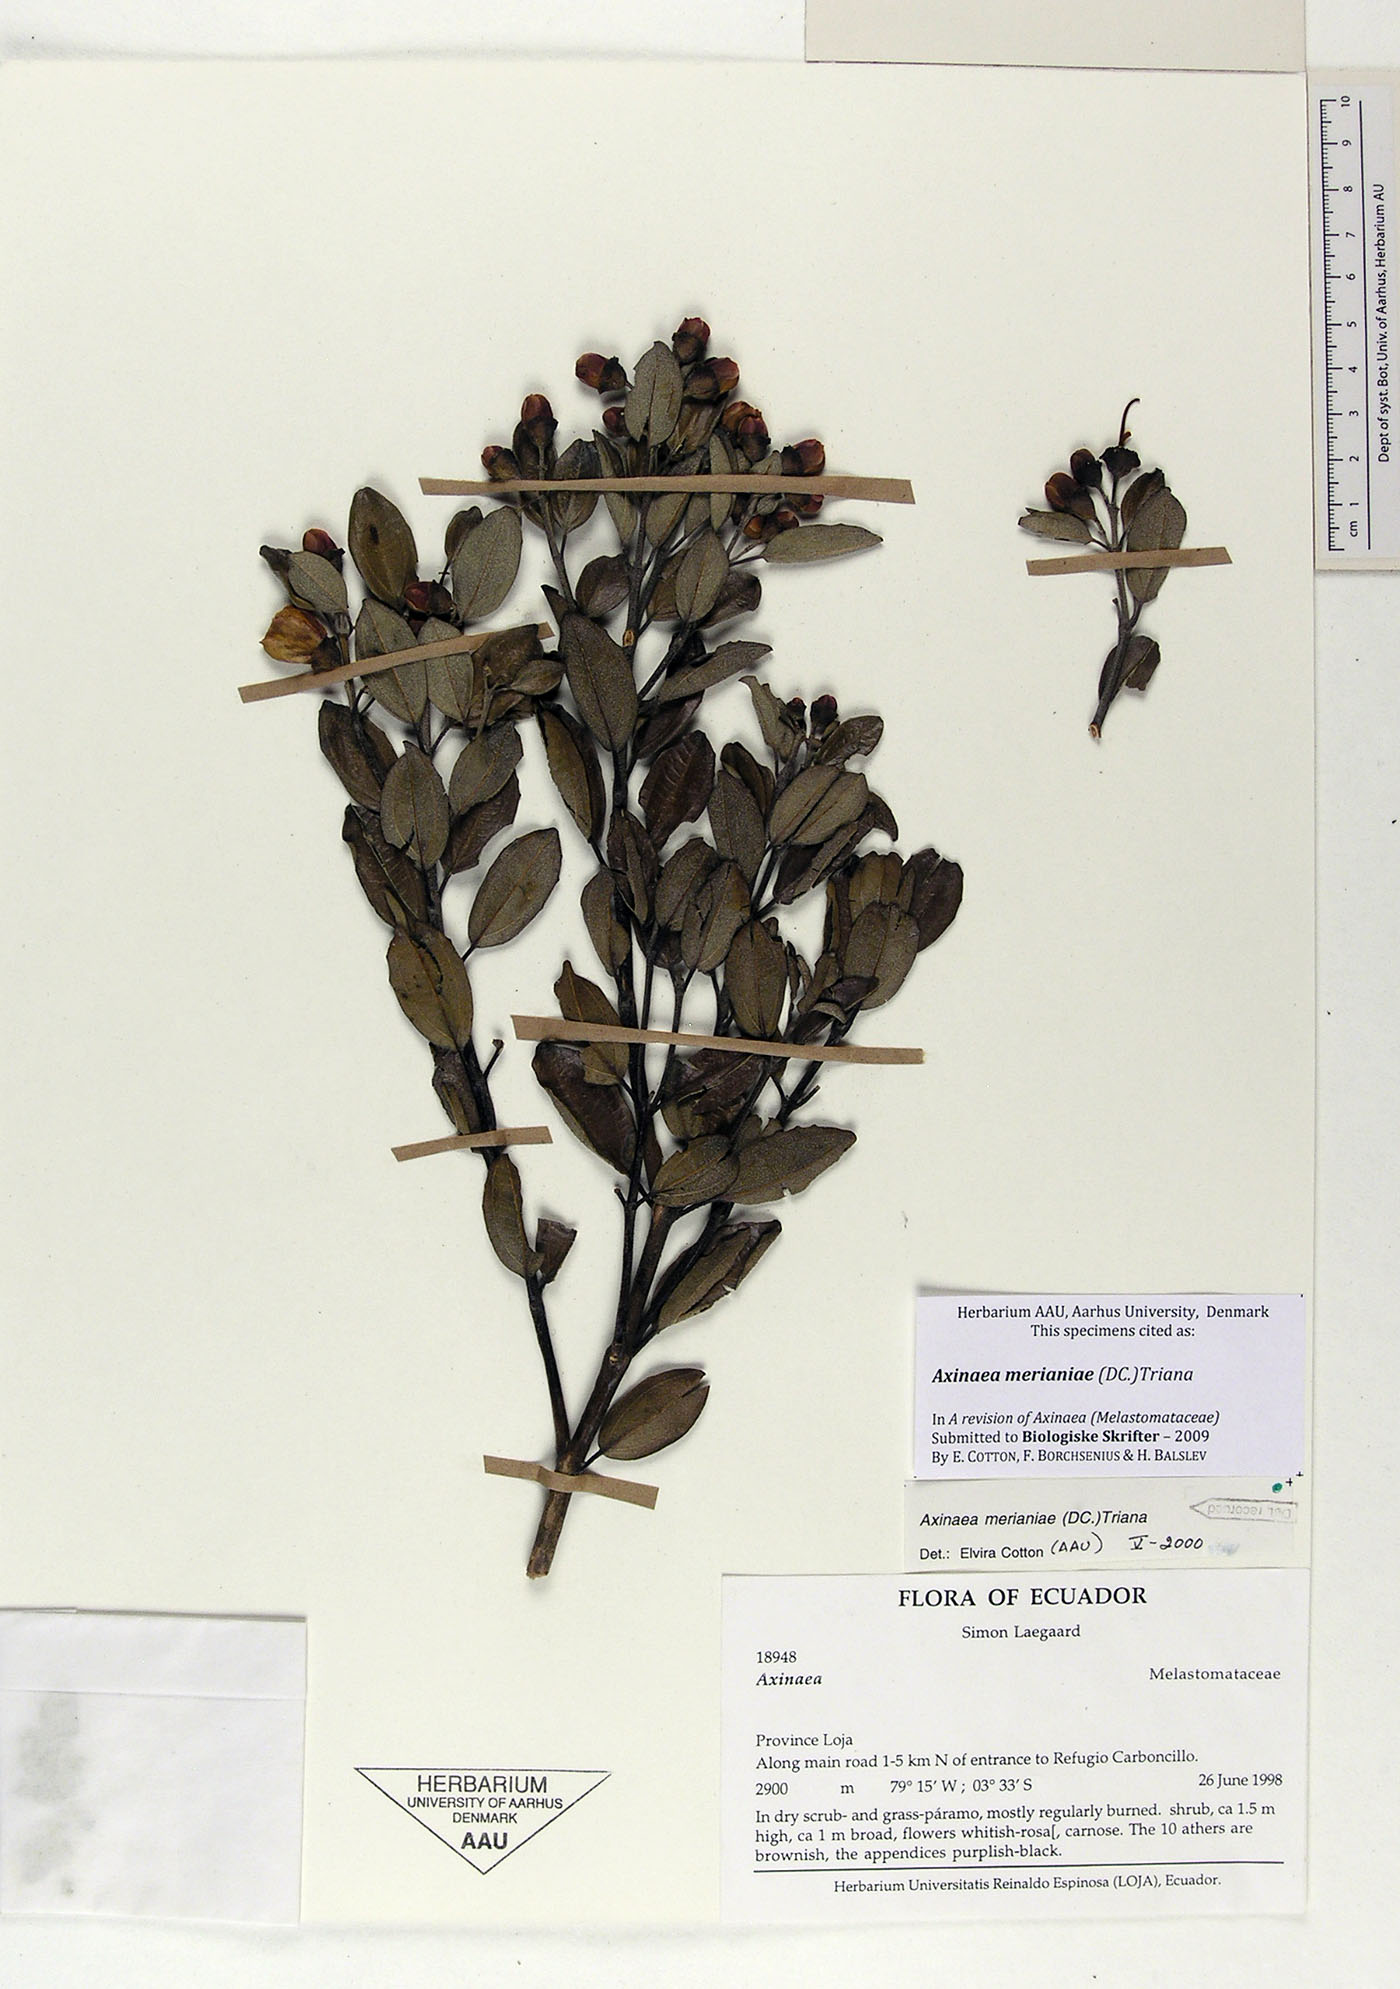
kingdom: Plantae
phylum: Tracheophyta
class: Magnoliopsida
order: Myrtales
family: Melastomataceae
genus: Axinaea
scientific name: Axinaea merianiae
